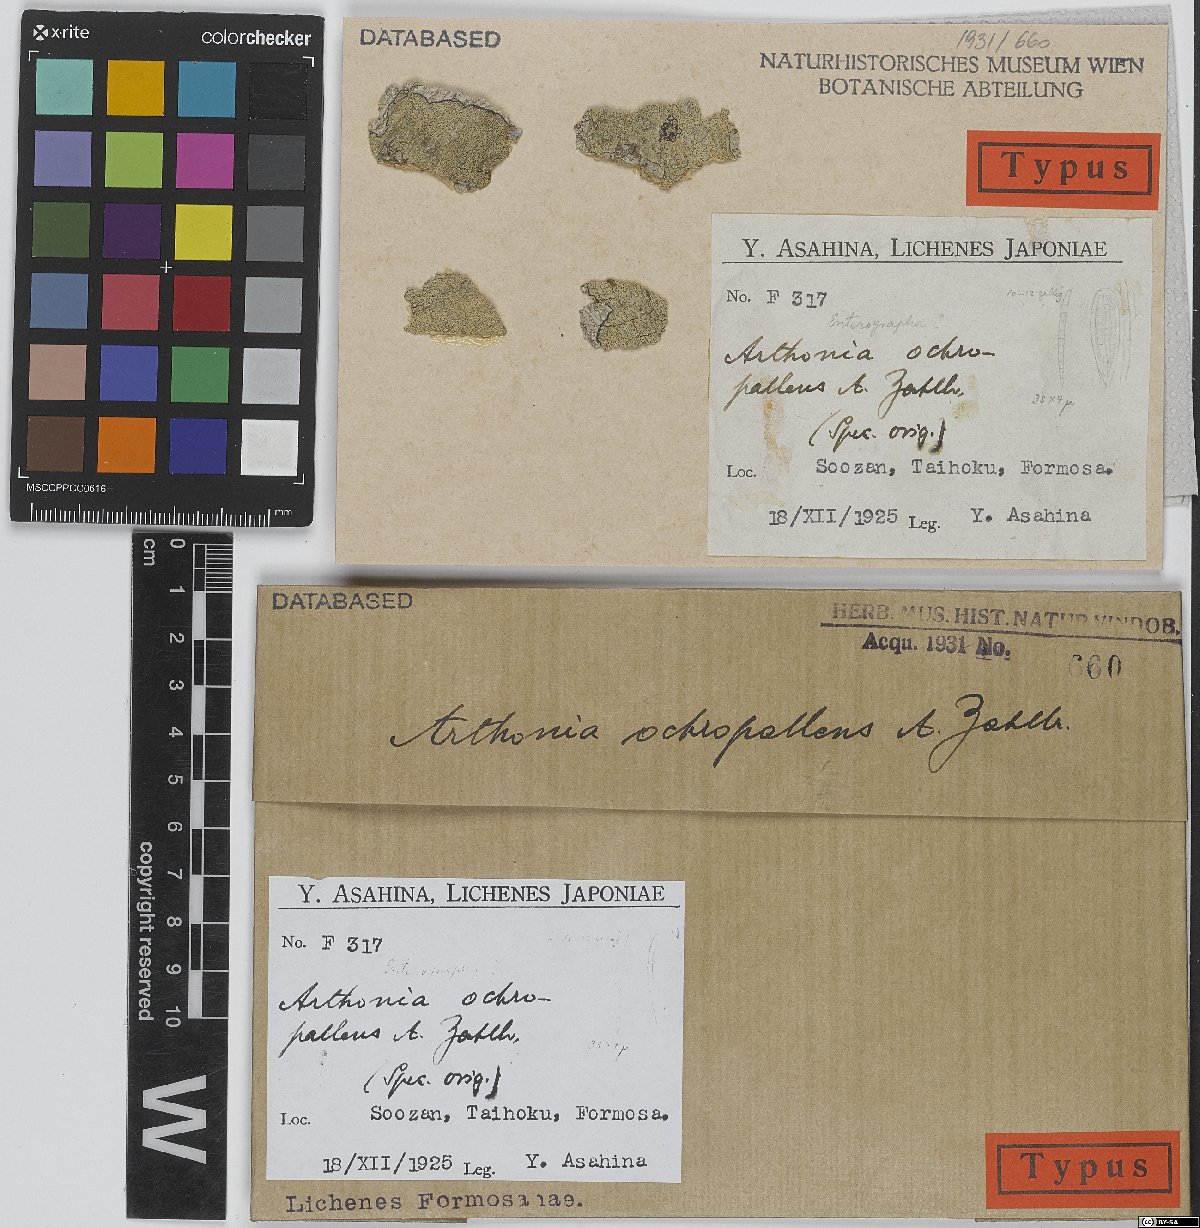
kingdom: Fungi
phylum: Ascomycota
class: Arthoniomycetes
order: Arthoniales
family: Arthoniaceae
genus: Arthonia
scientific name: Arthonia ochropallens
